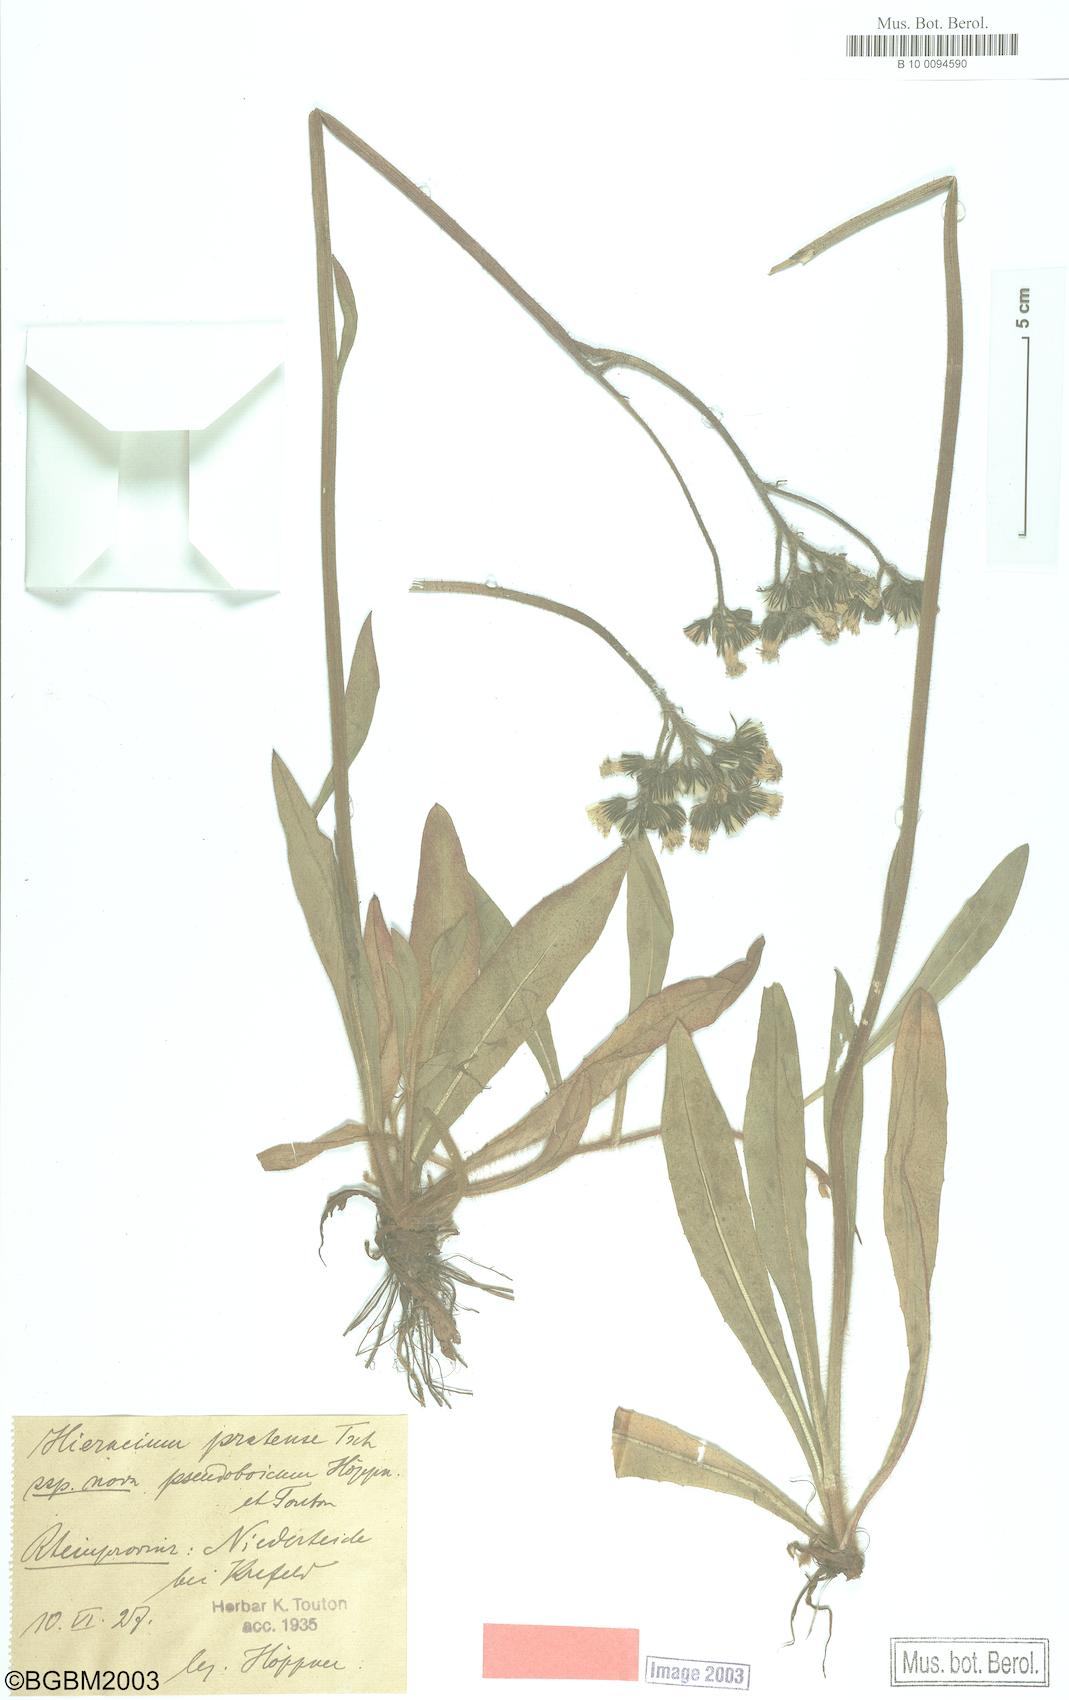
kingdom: Plantae
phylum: Tracheophyta
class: Magnoliopsida
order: Asterales
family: Asteraceae
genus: Pilosella
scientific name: Pilosella caespitosa
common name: Yellow fox-and-cubs
